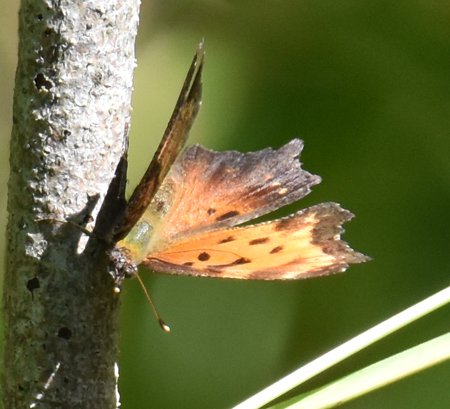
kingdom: Animalia
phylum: Arthropoda
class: Insecta
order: Lepidoptera
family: Nymphalidae
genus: Polygonia
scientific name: Polygonia comma
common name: Eastern Comma
